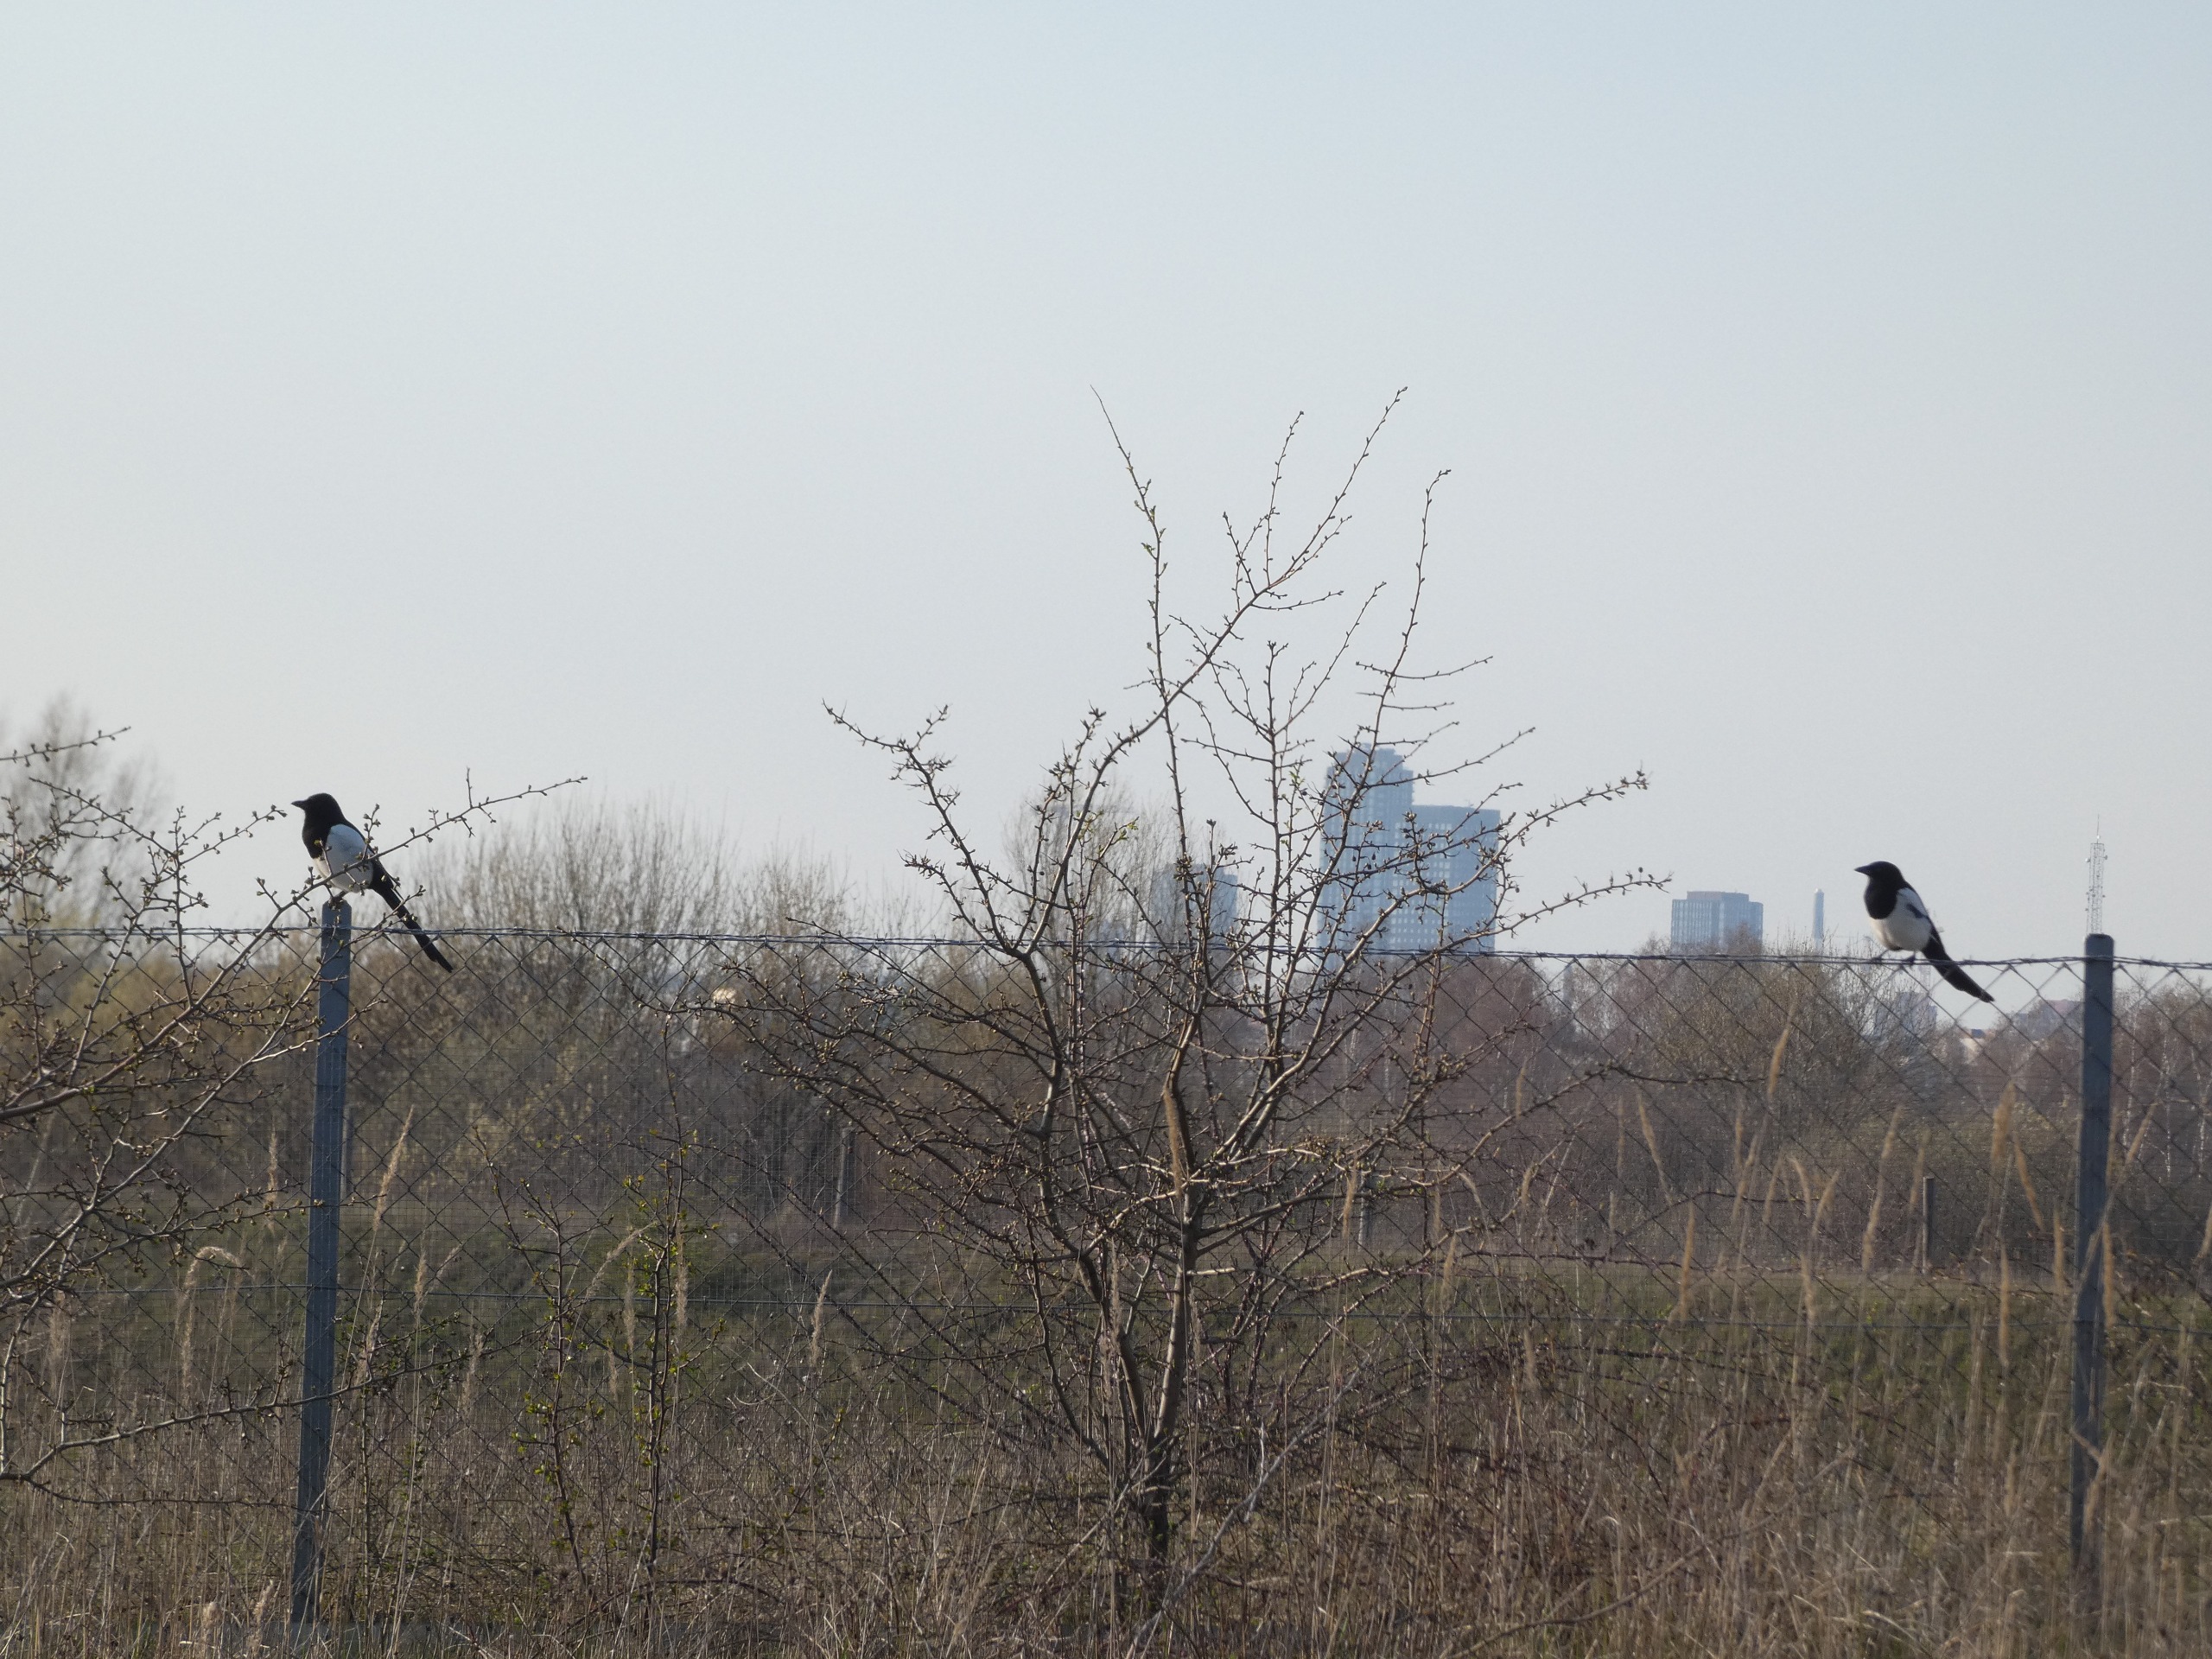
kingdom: Animalia
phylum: Chordata
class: Aves
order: Passeriformes
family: Corvidae
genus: Pica
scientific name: Pica pica
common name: Husskade
